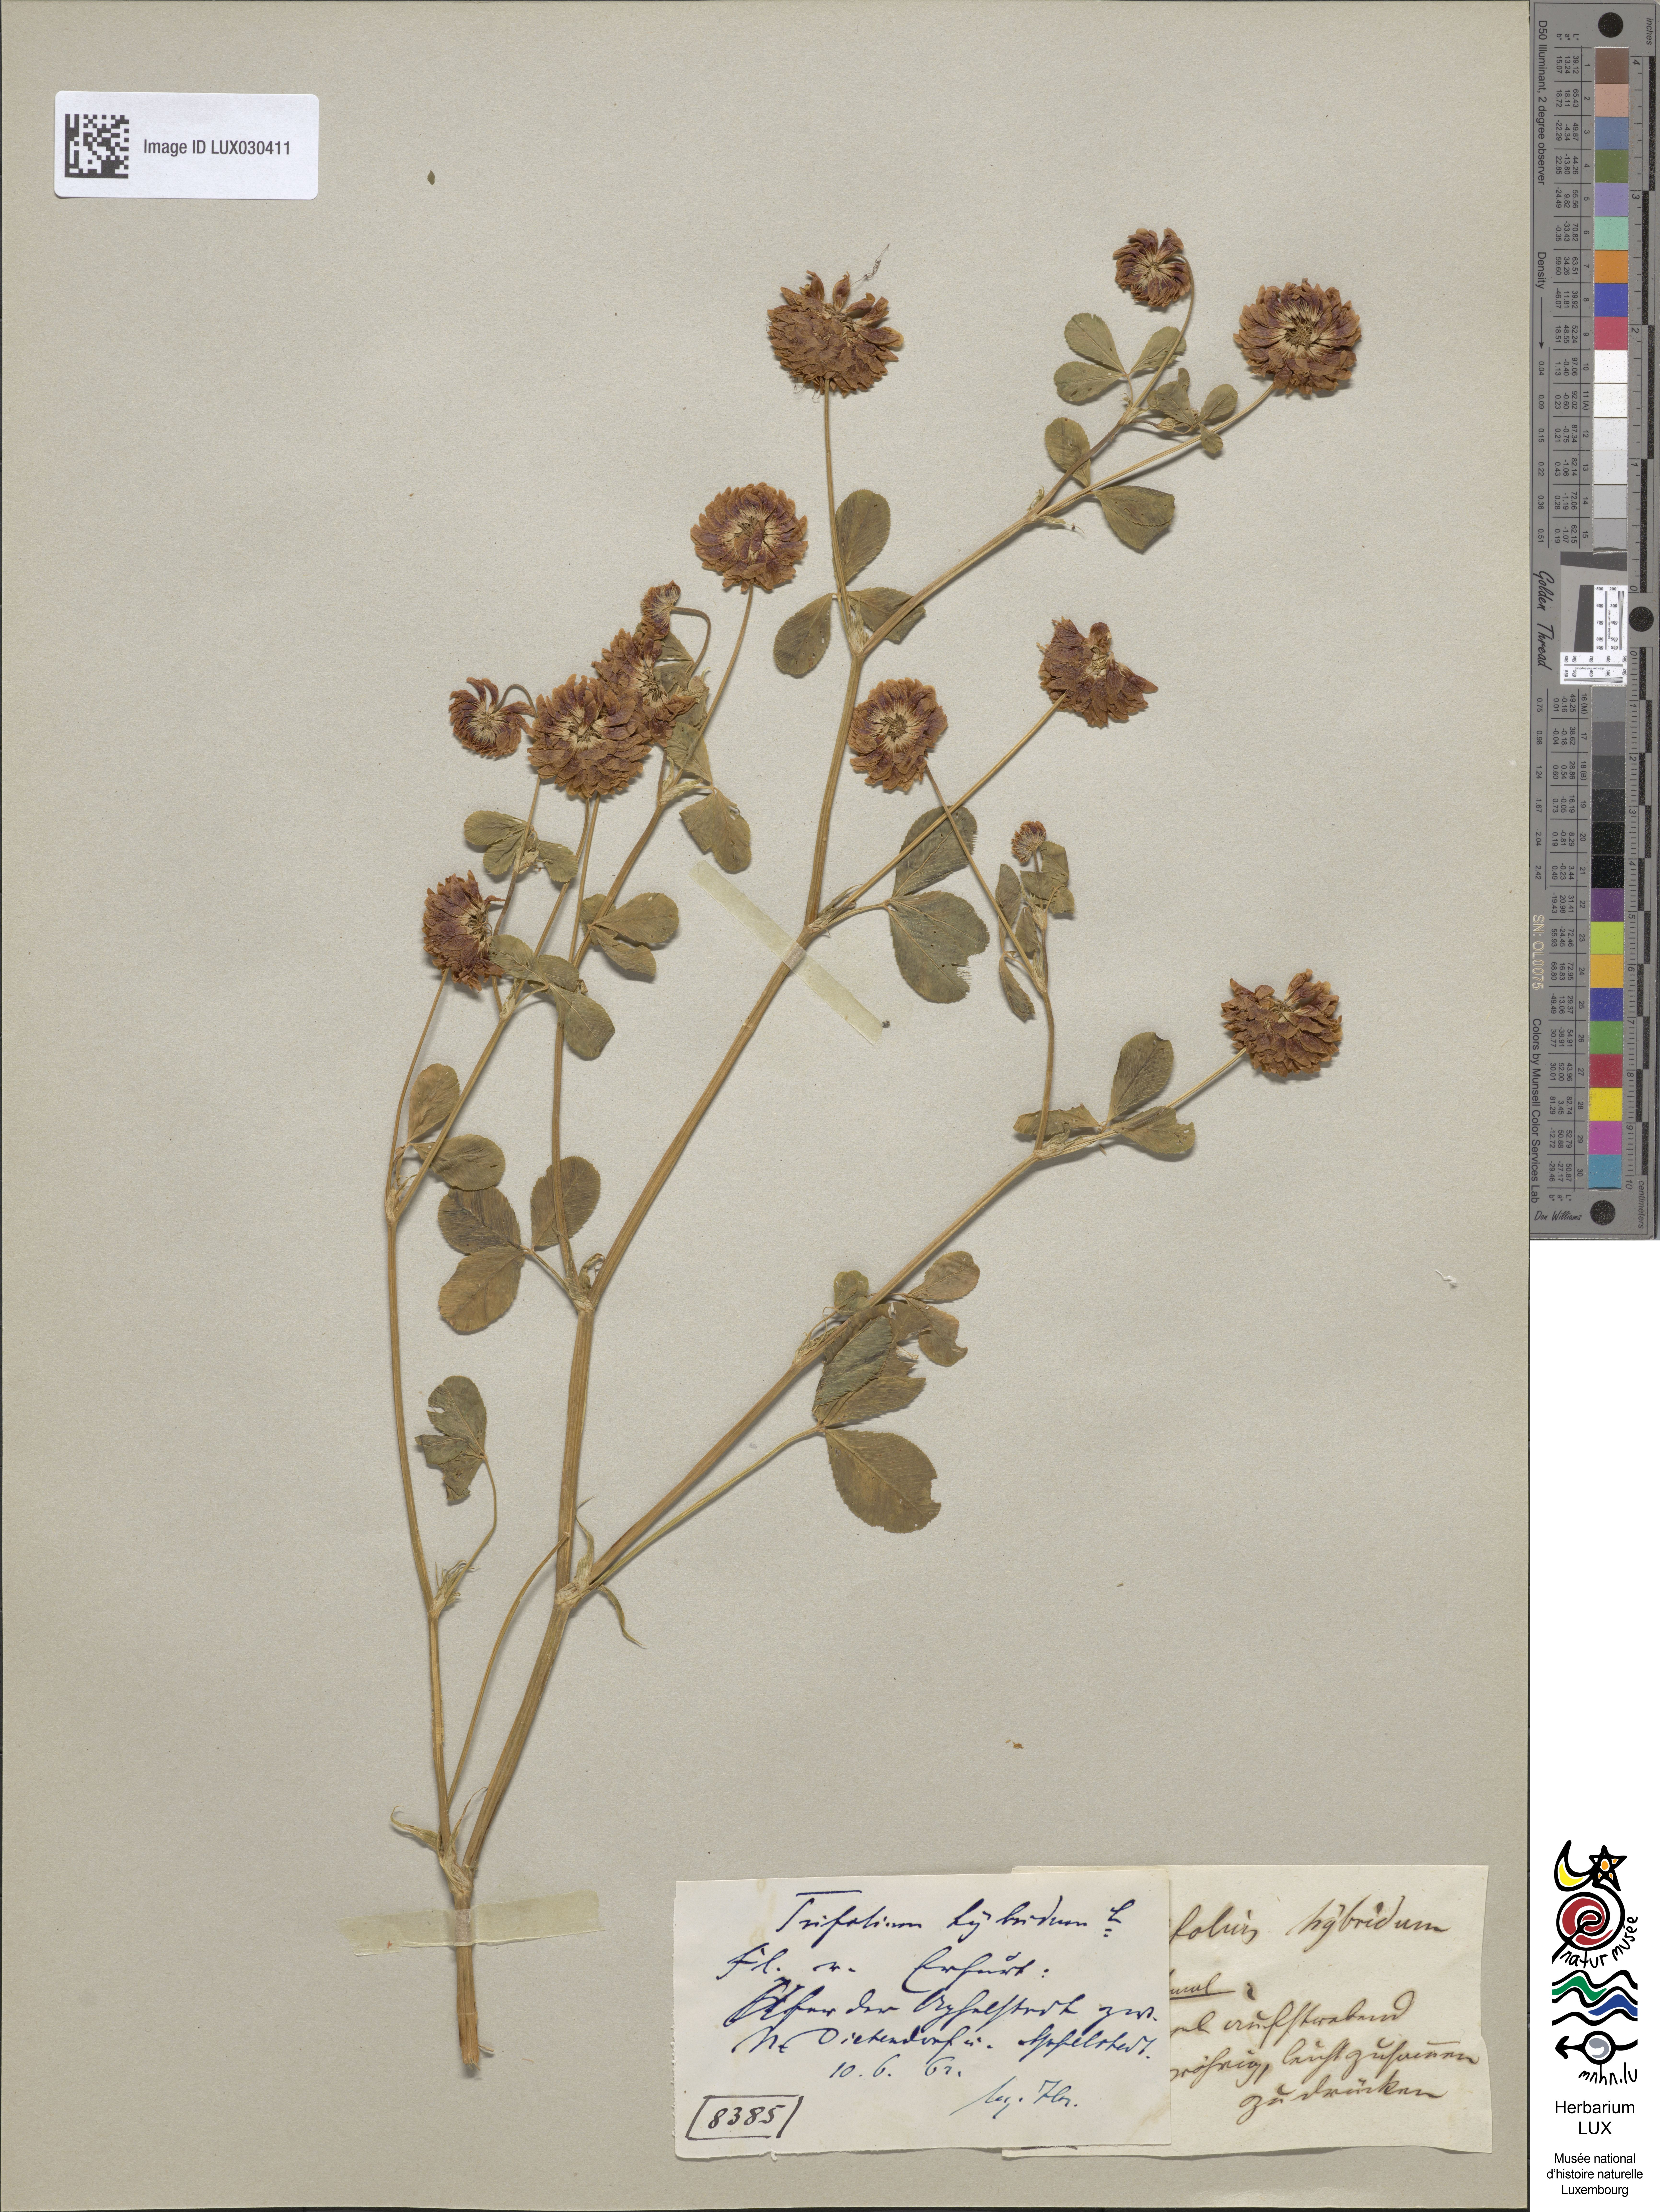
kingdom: Plantae
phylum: Tracheophyta
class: Magnoliopsida
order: Fabales
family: Fabaceae
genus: Trifolium
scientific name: Trifolium hybridum
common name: Alsike clover
